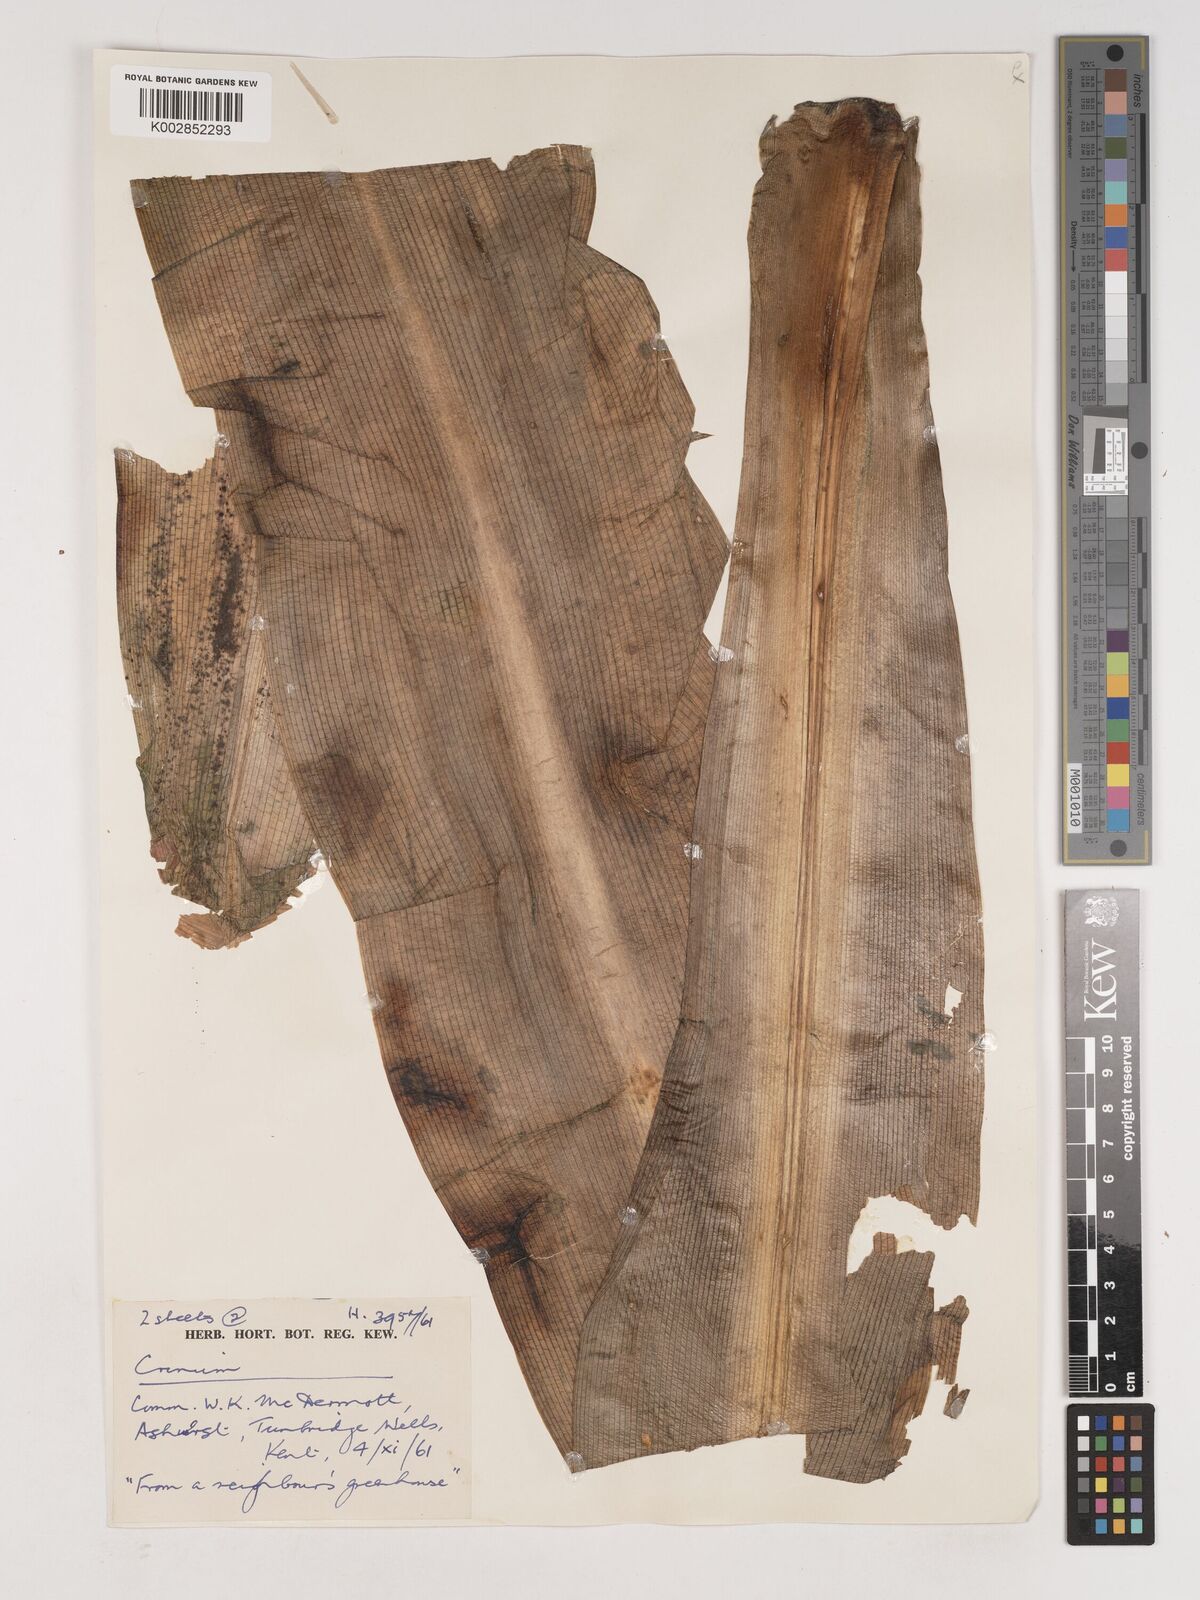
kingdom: Plantae
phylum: Tracheophyta
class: Liliopsida
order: Asparagales
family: Amaryllidaceae
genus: Crinum
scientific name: Crinum
